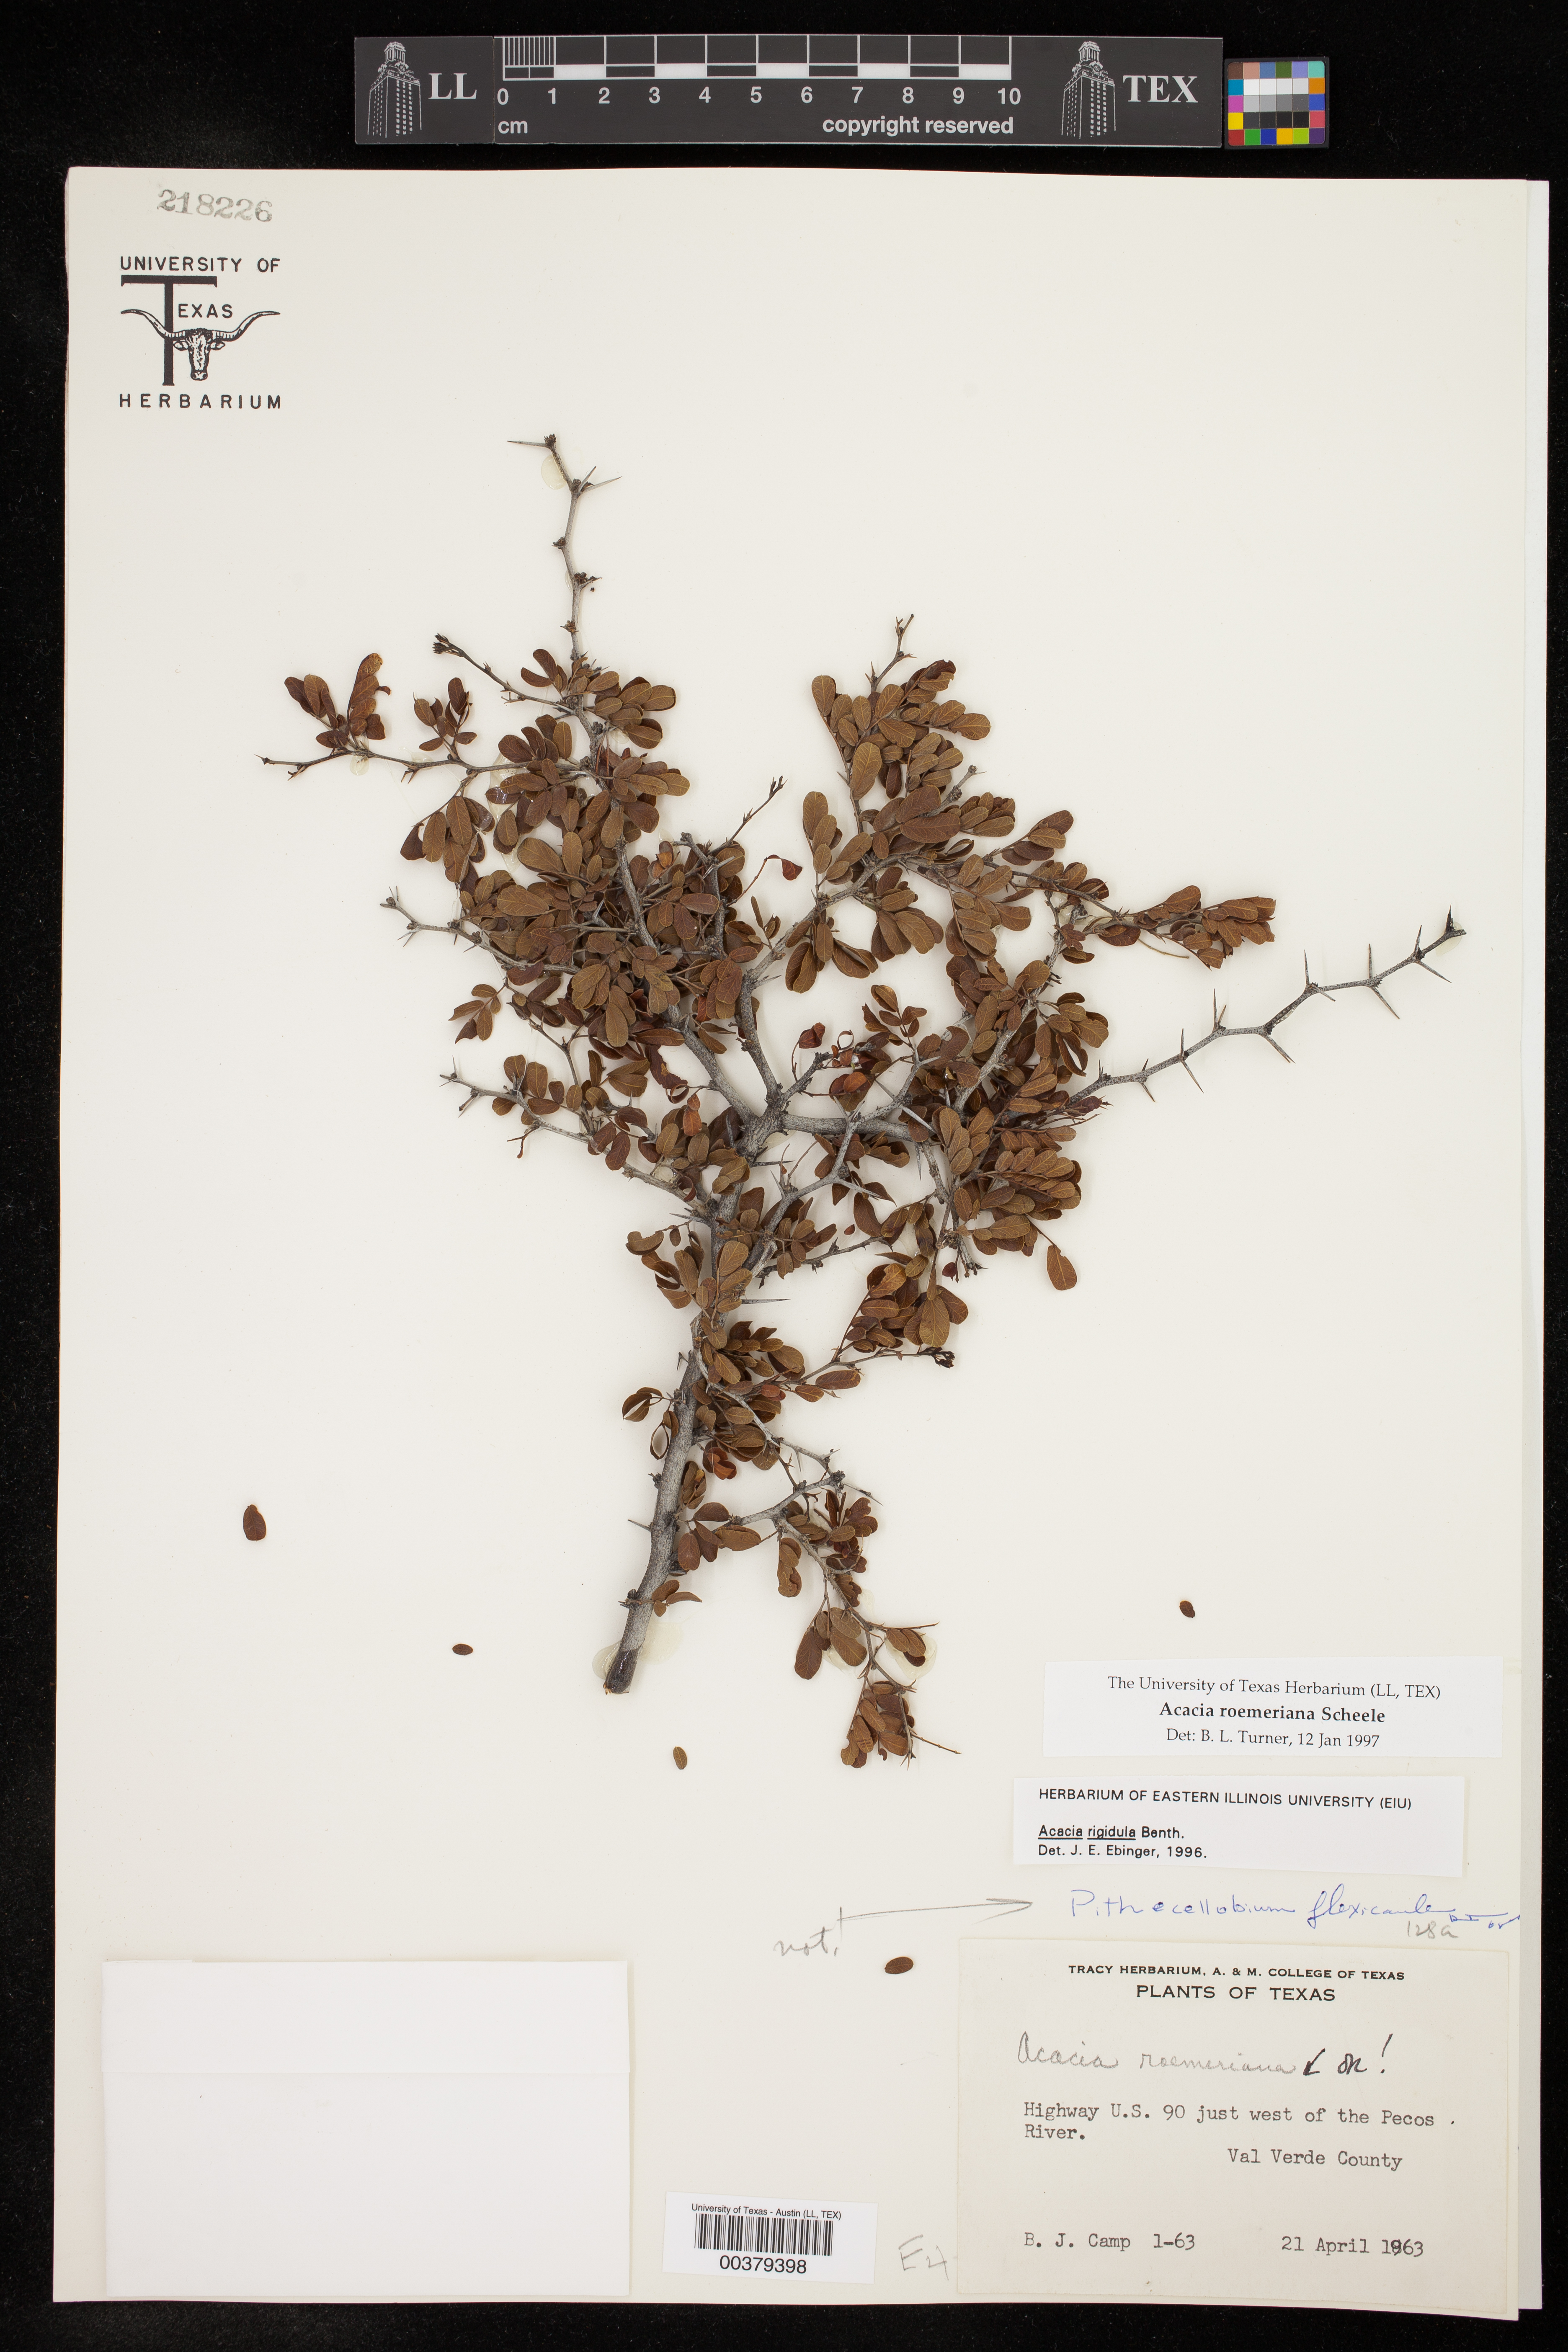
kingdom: Plantae
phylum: Tracheophyta
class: Magnoliopsida
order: Fabales
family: Fabaceae
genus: Senegalia
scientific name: Senegalia roemeriana
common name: Roemer's acacia
